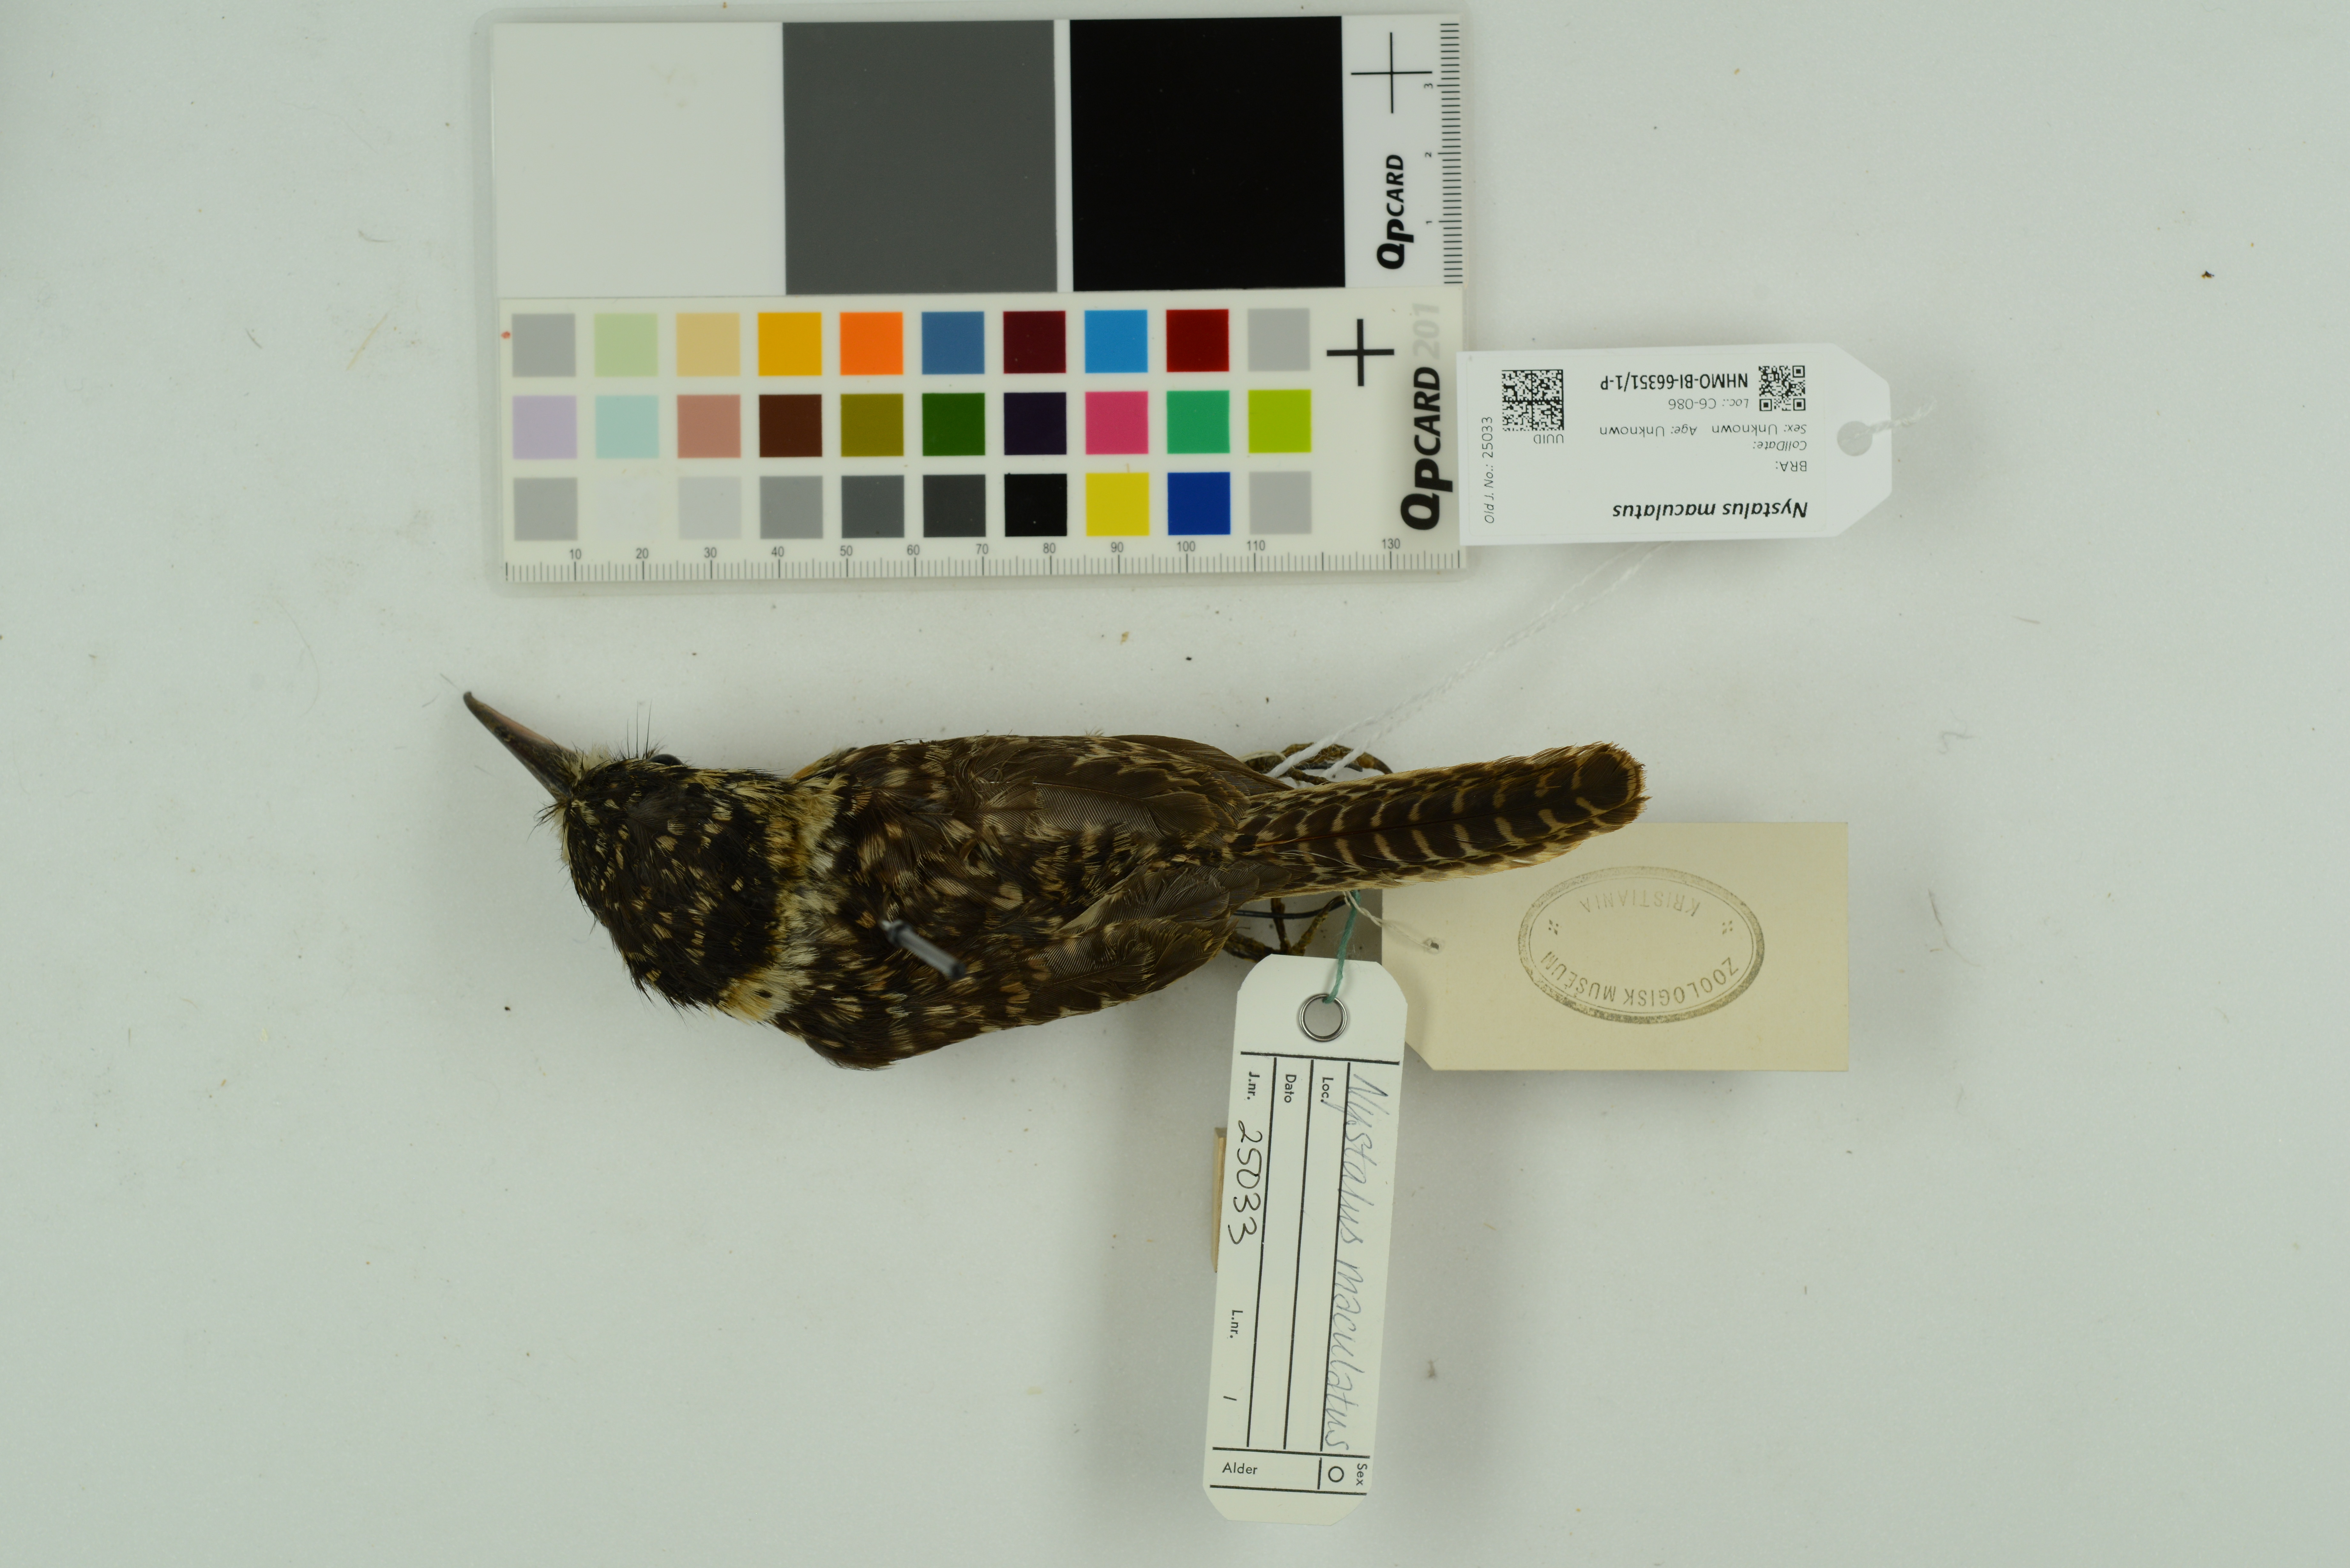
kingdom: Animalia
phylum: Chordata
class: Aves
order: Piciformes
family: Bucconidae
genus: Nystalus
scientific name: Nystalus maculatus
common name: Caatinga puffbird
